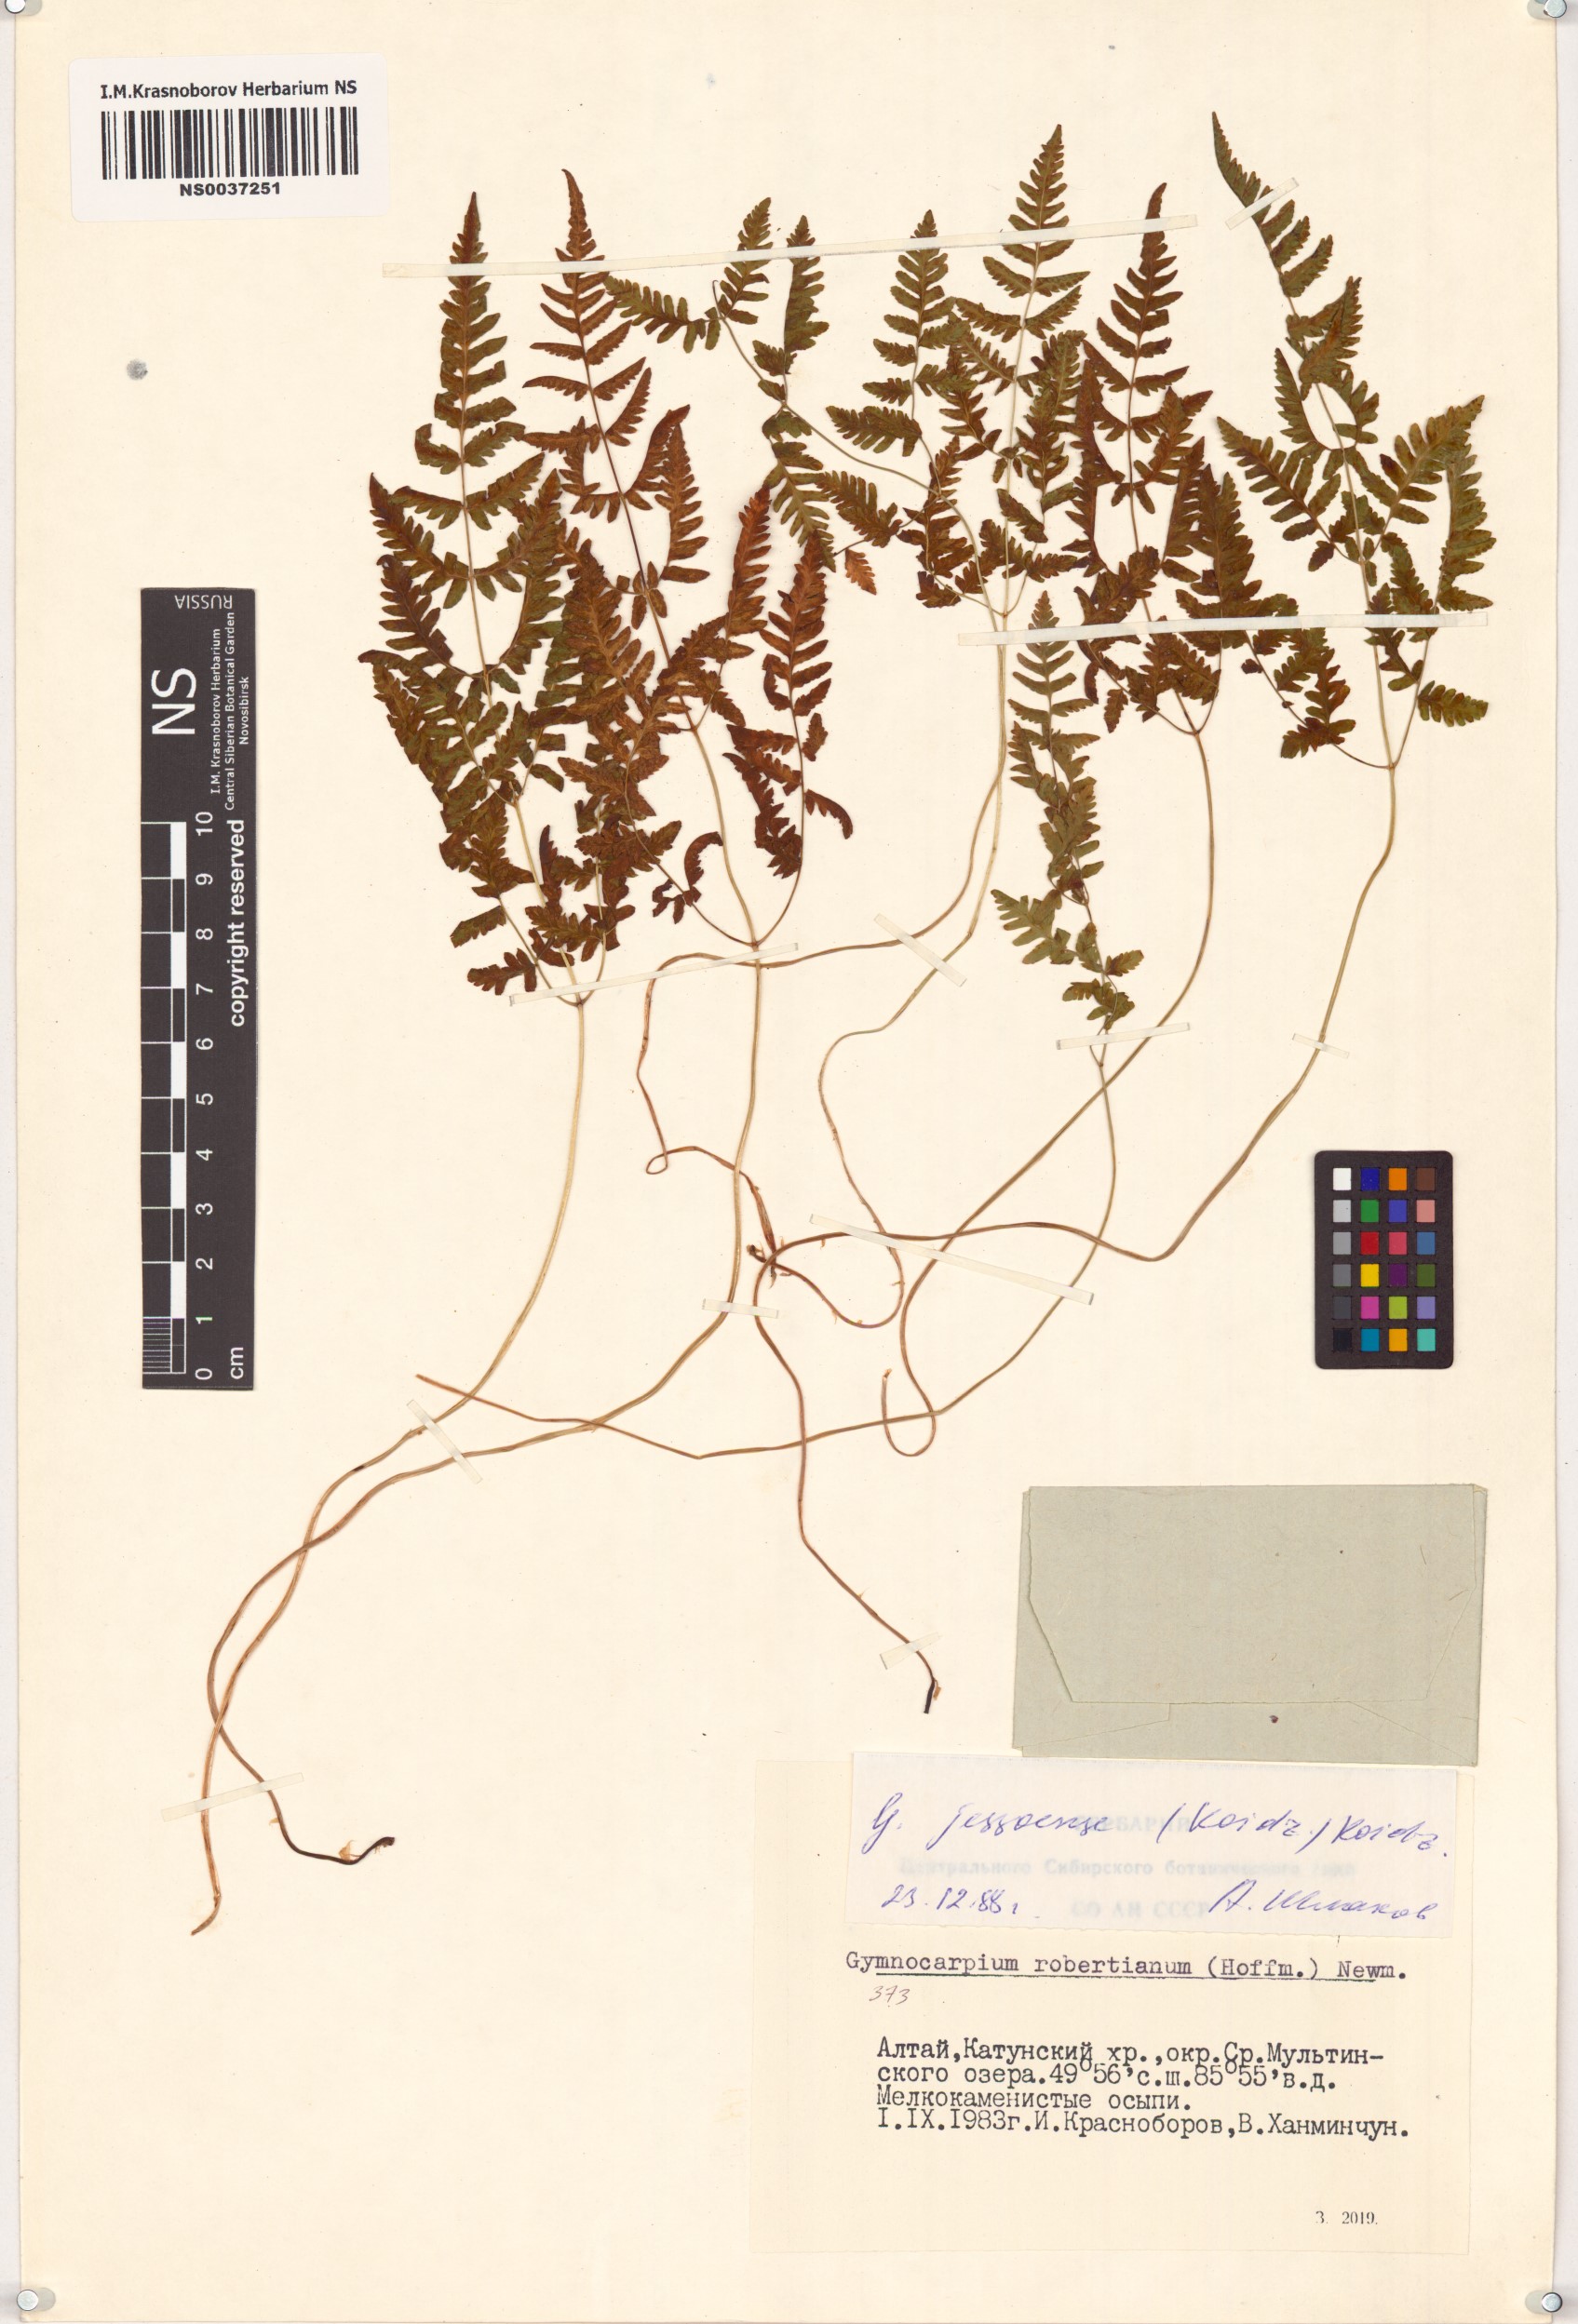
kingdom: Plantae
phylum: Tracheophyta
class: Polypodiopsida
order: Polypodiales
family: Cystopteridaceae
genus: Gymnocarpium
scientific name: Gymnocarpium jessoense
